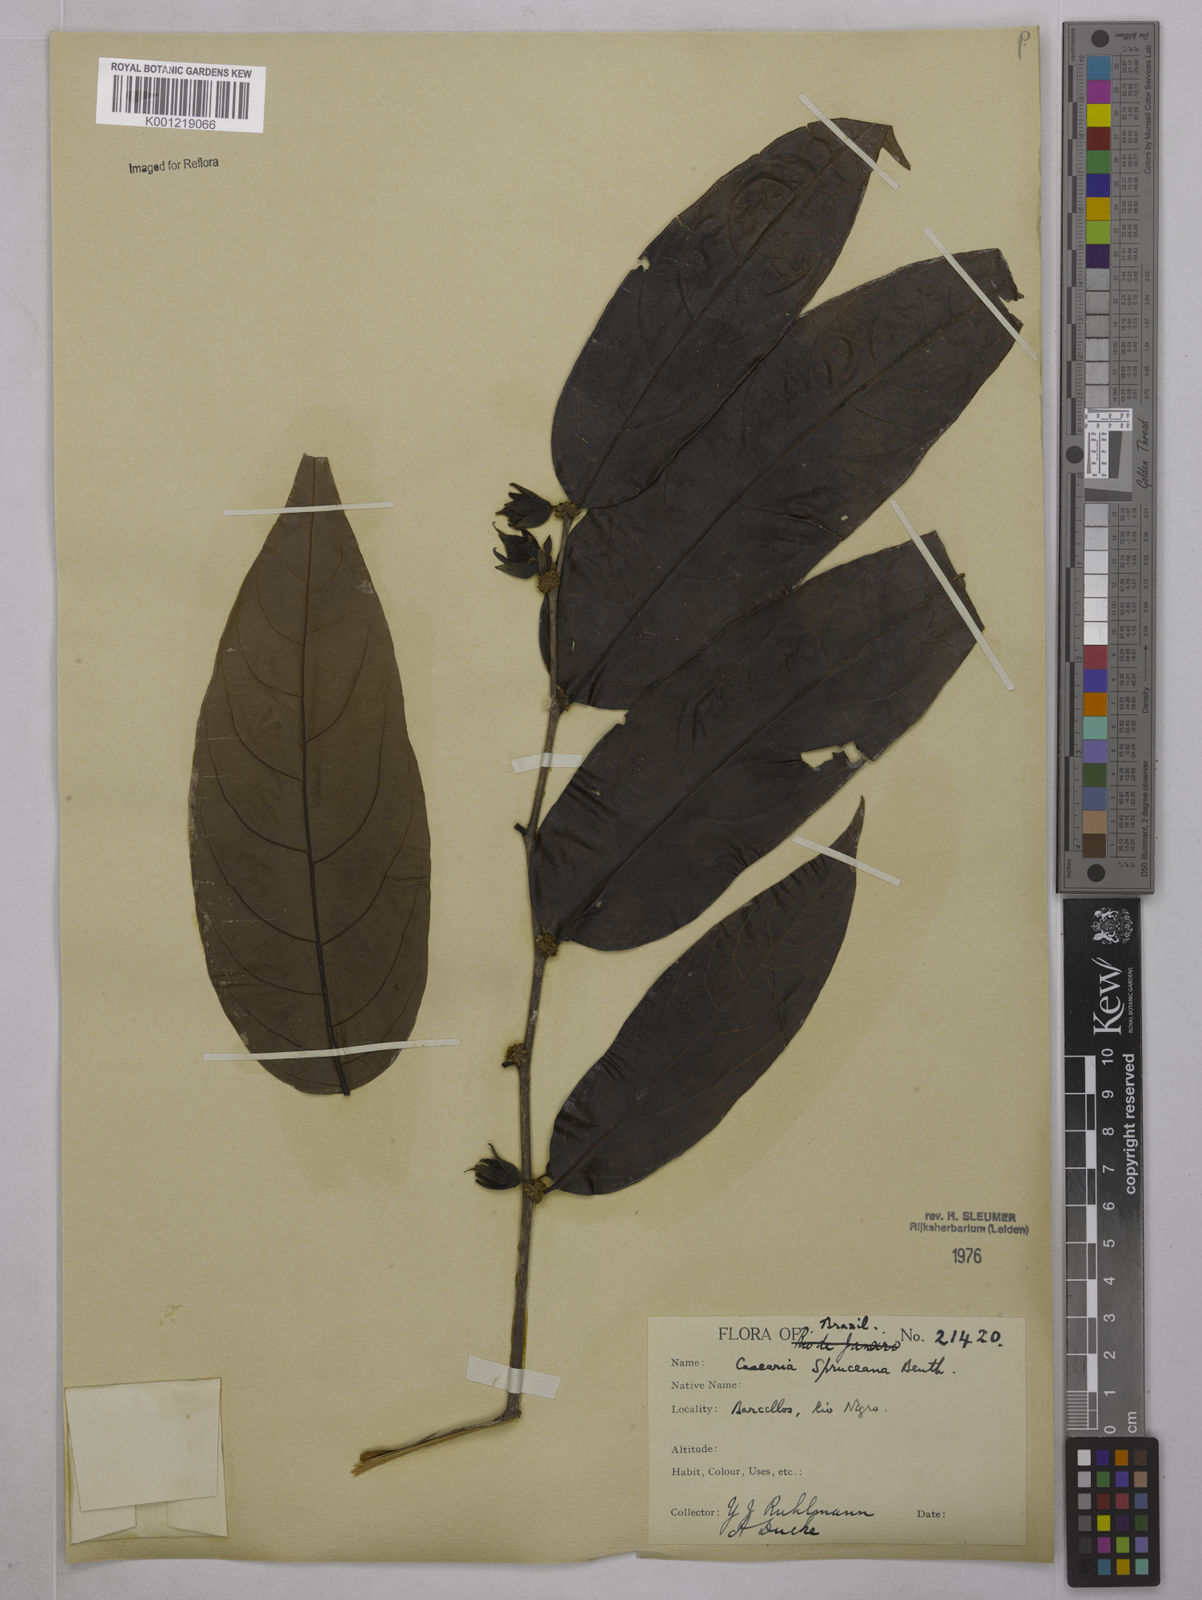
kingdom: Plantae
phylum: Tracheophyta
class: Magnoliopsida
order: Malpighiales
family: Salicaceae
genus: Piparea
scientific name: Piparea spruceana
